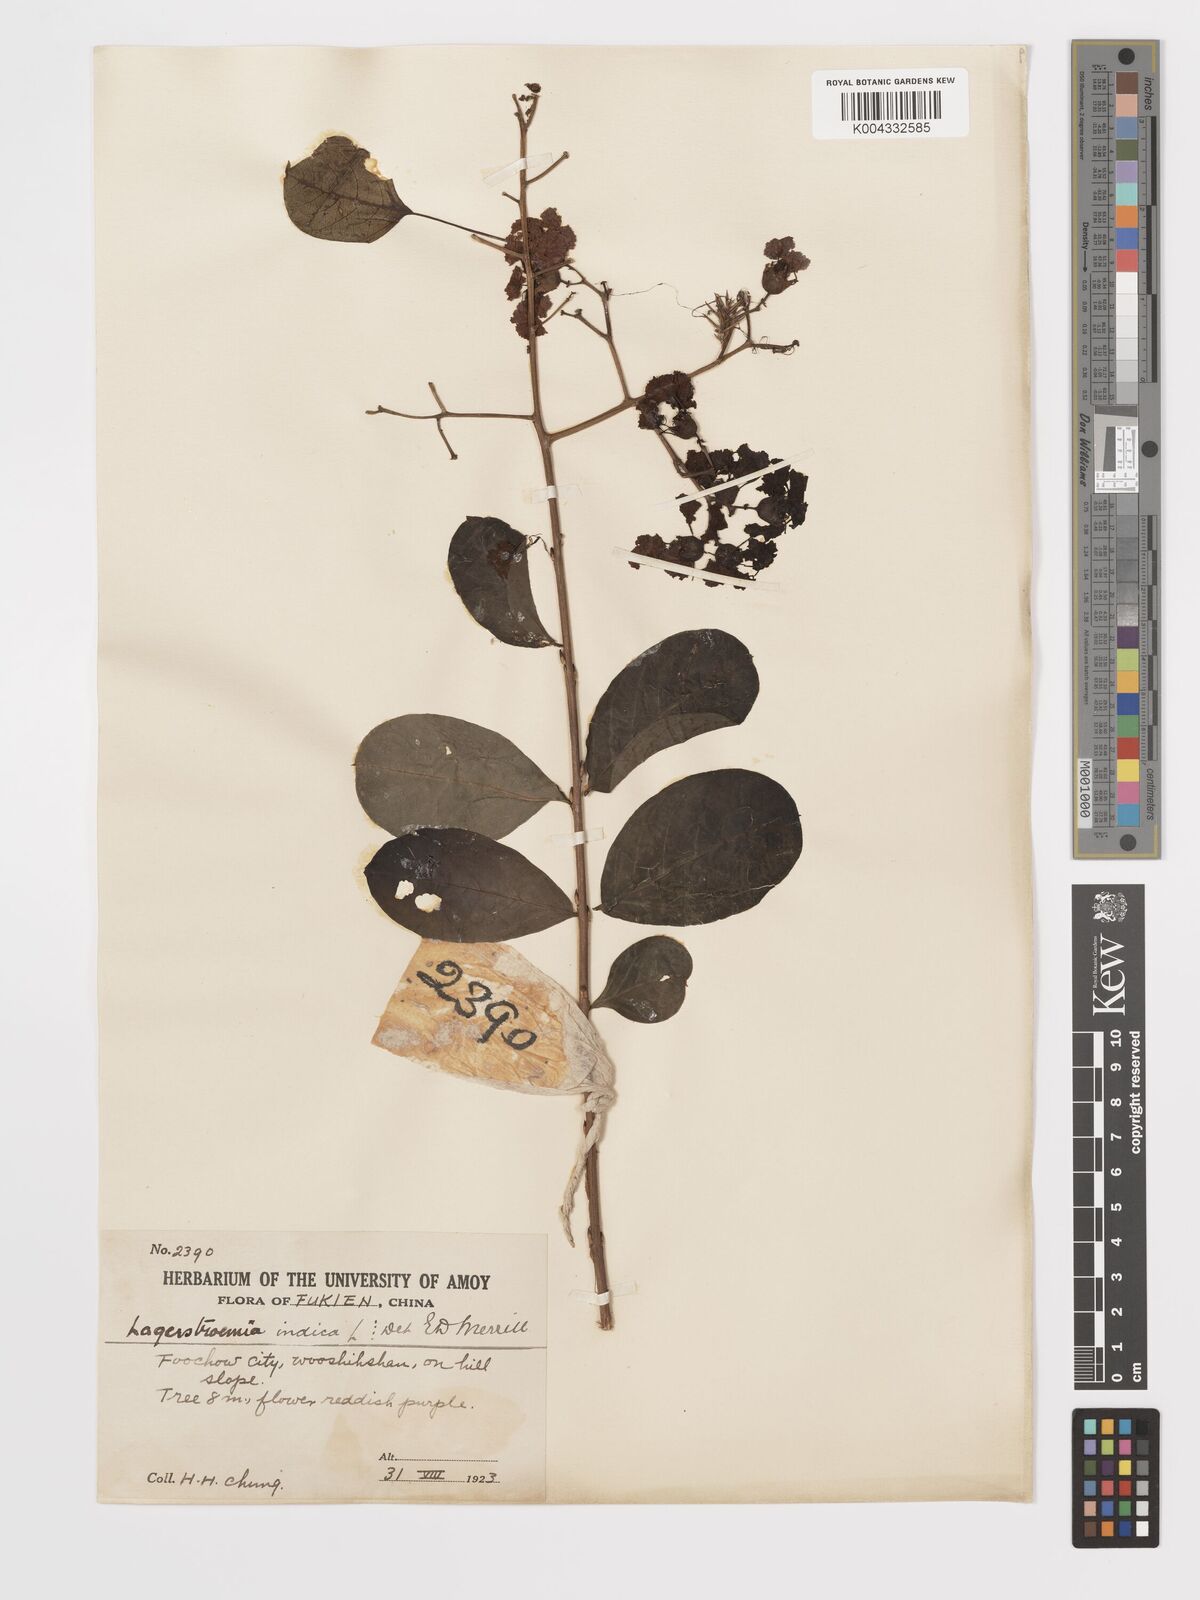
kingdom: Plantae
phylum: Tracheophyta
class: Magnoliopsida
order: Myrtales
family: Lythraceae
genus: Lagerstroemia
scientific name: Lagerstroemia indica
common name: Crape-myrtle
